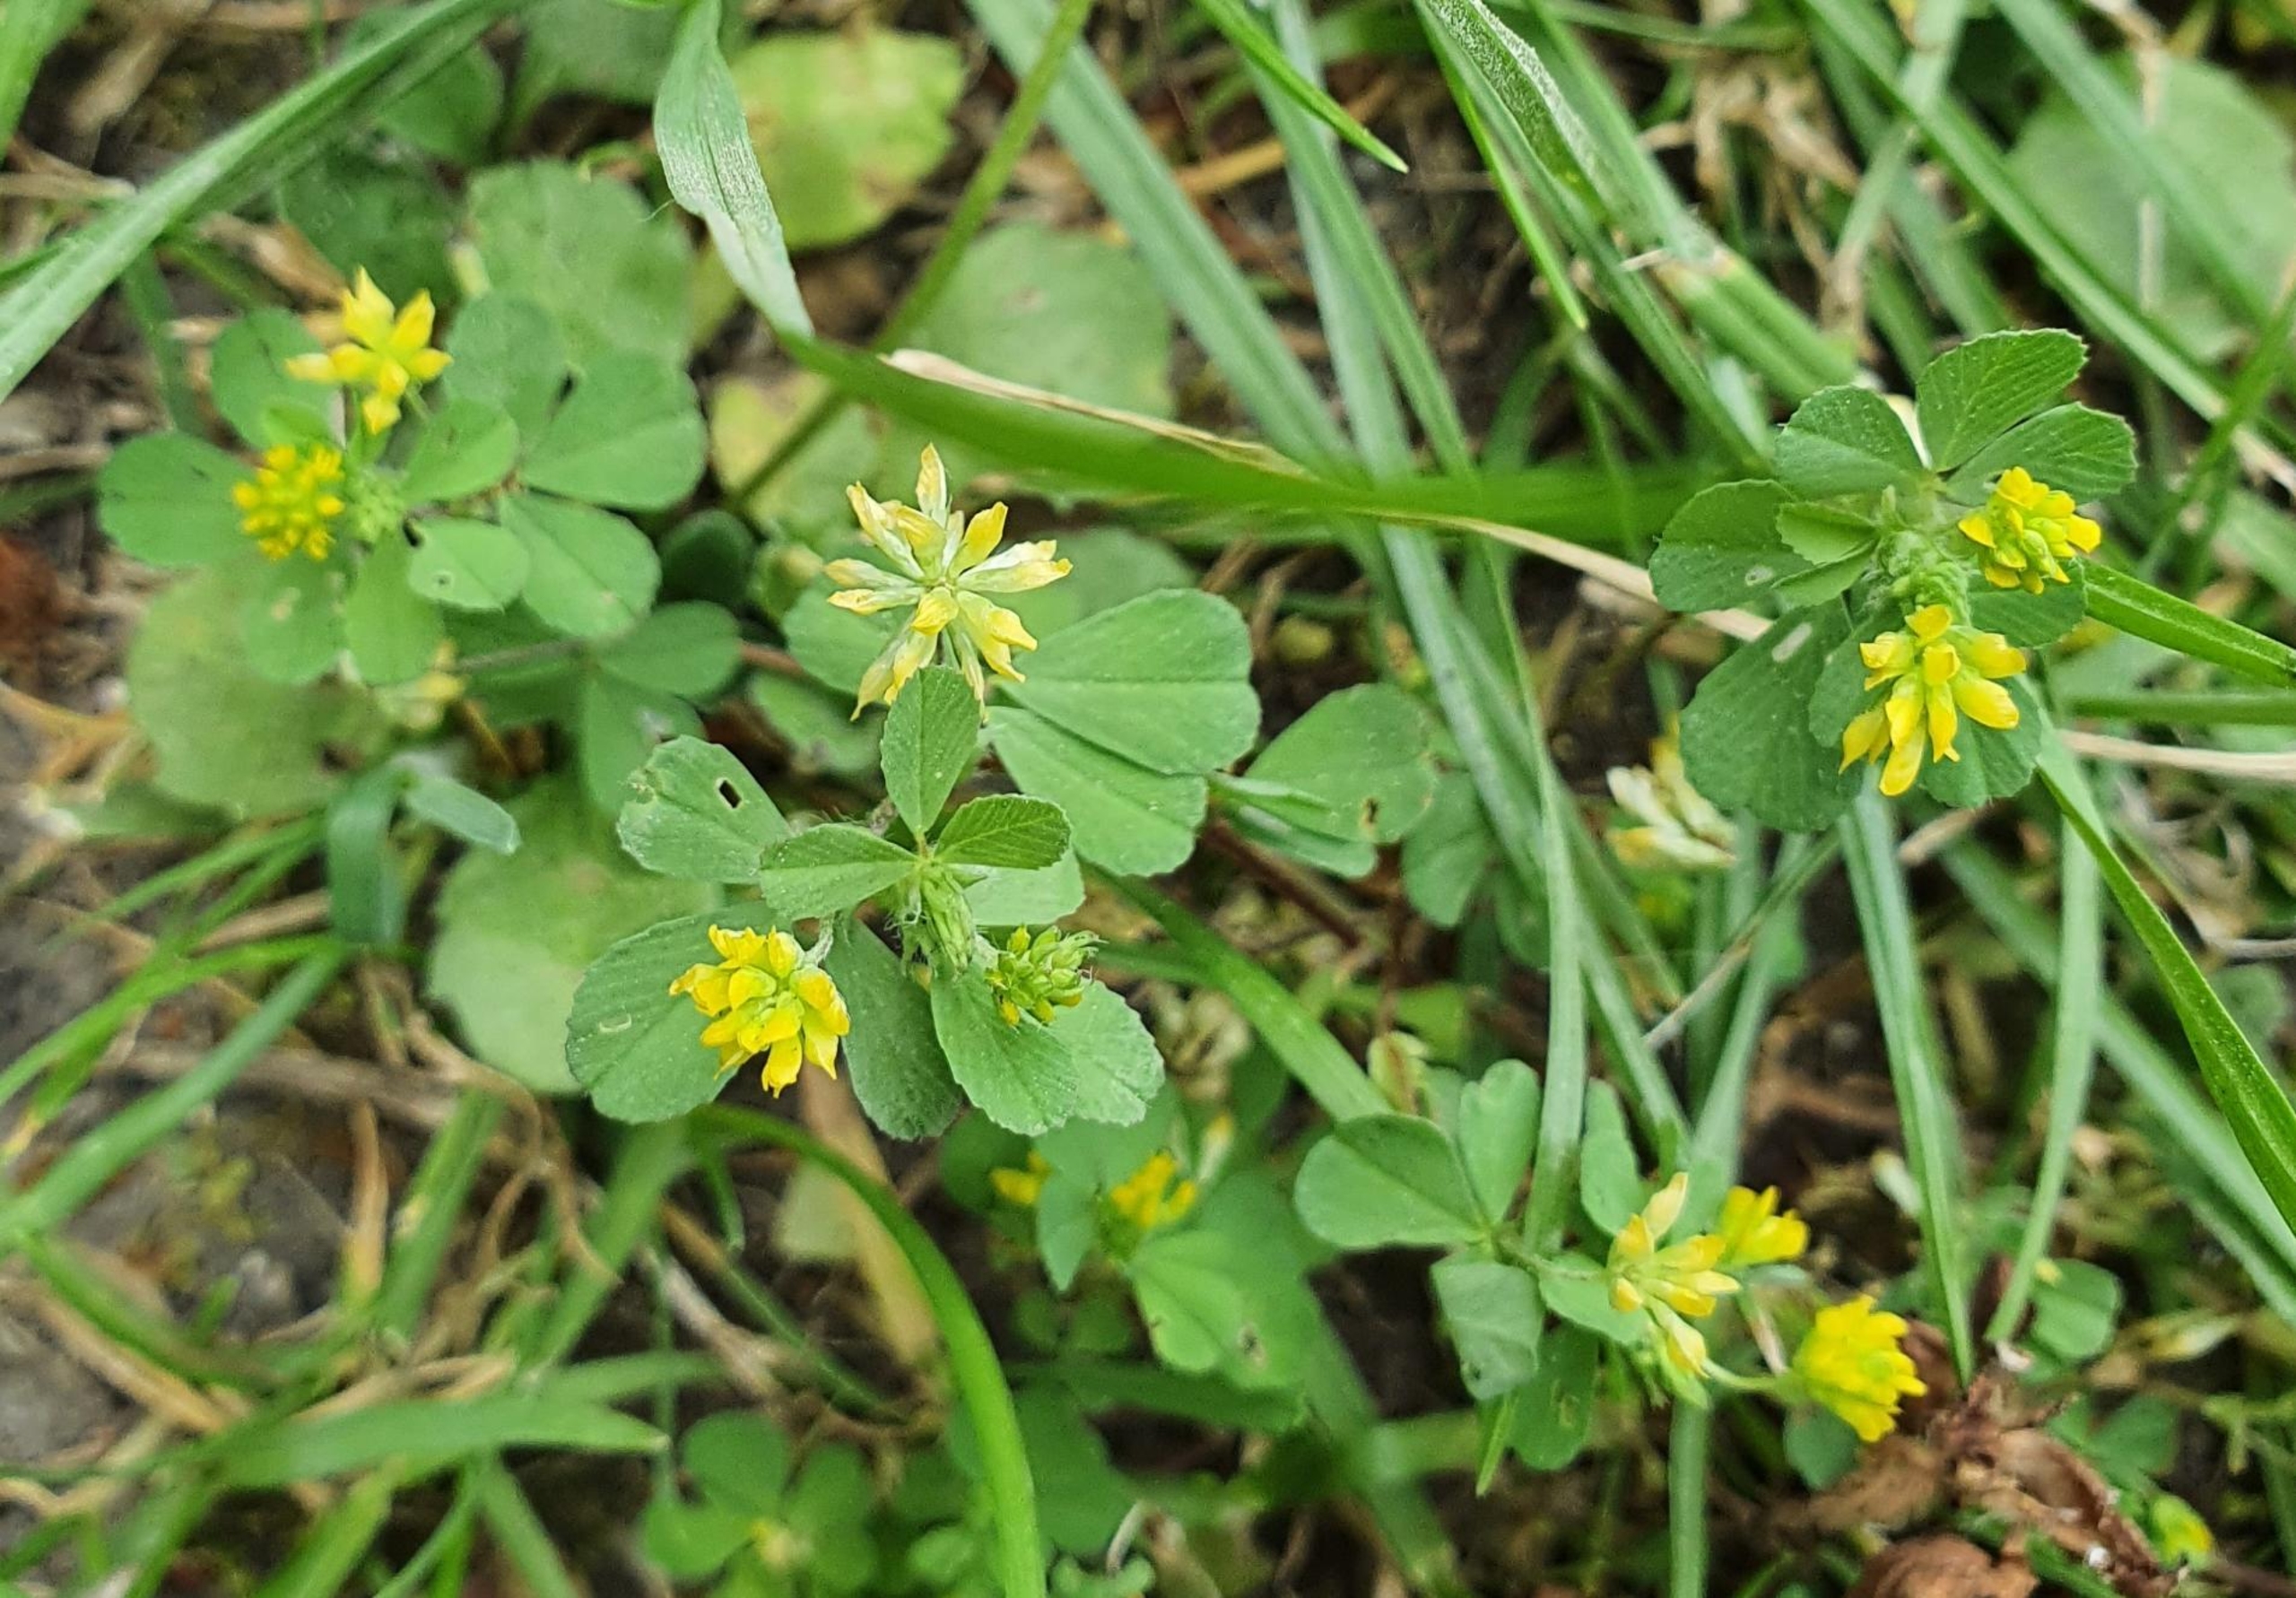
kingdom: Plantae
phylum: Tracheophyta
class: Magnoliopsida
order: Fabales
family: Fabaceae
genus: Trifolium
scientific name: Trifolium dubium
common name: Fin kløver
